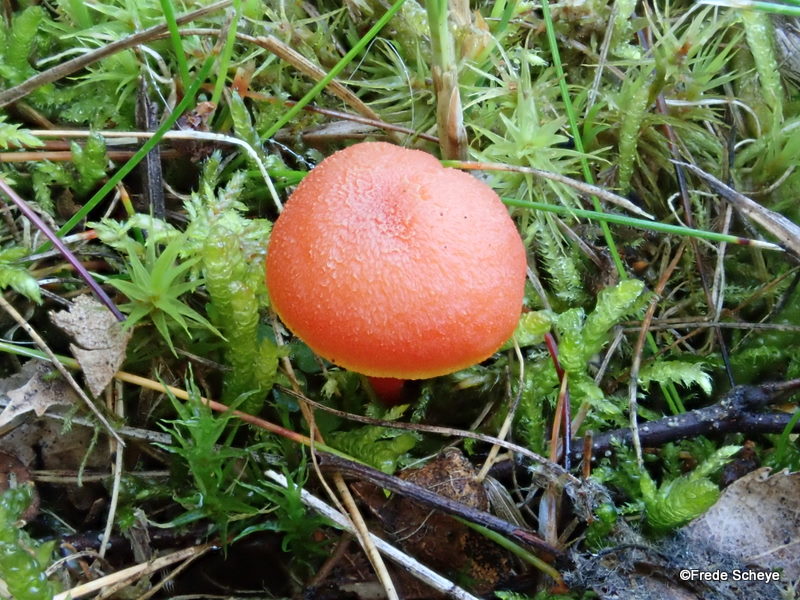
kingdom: Fungi
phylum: Basidiomycota
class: Agaricomycetes
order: Agaricales
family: Hygrophoraceae
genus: Hygrocybe
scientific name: Hygrocybe miniata
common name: mønje-vokshat
